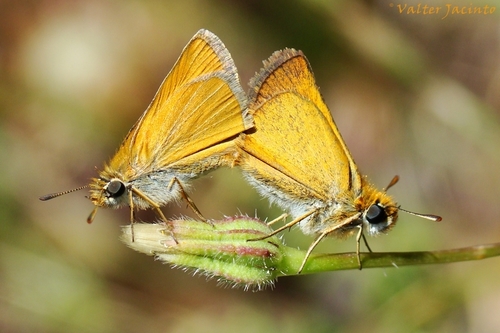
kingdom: Animalia
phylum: Arthropoda
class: Insecta
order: Lepidoptera
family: Hesperiidae
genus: Thymelicus
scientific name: Thymelicus sylvestris
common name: Small skipper
